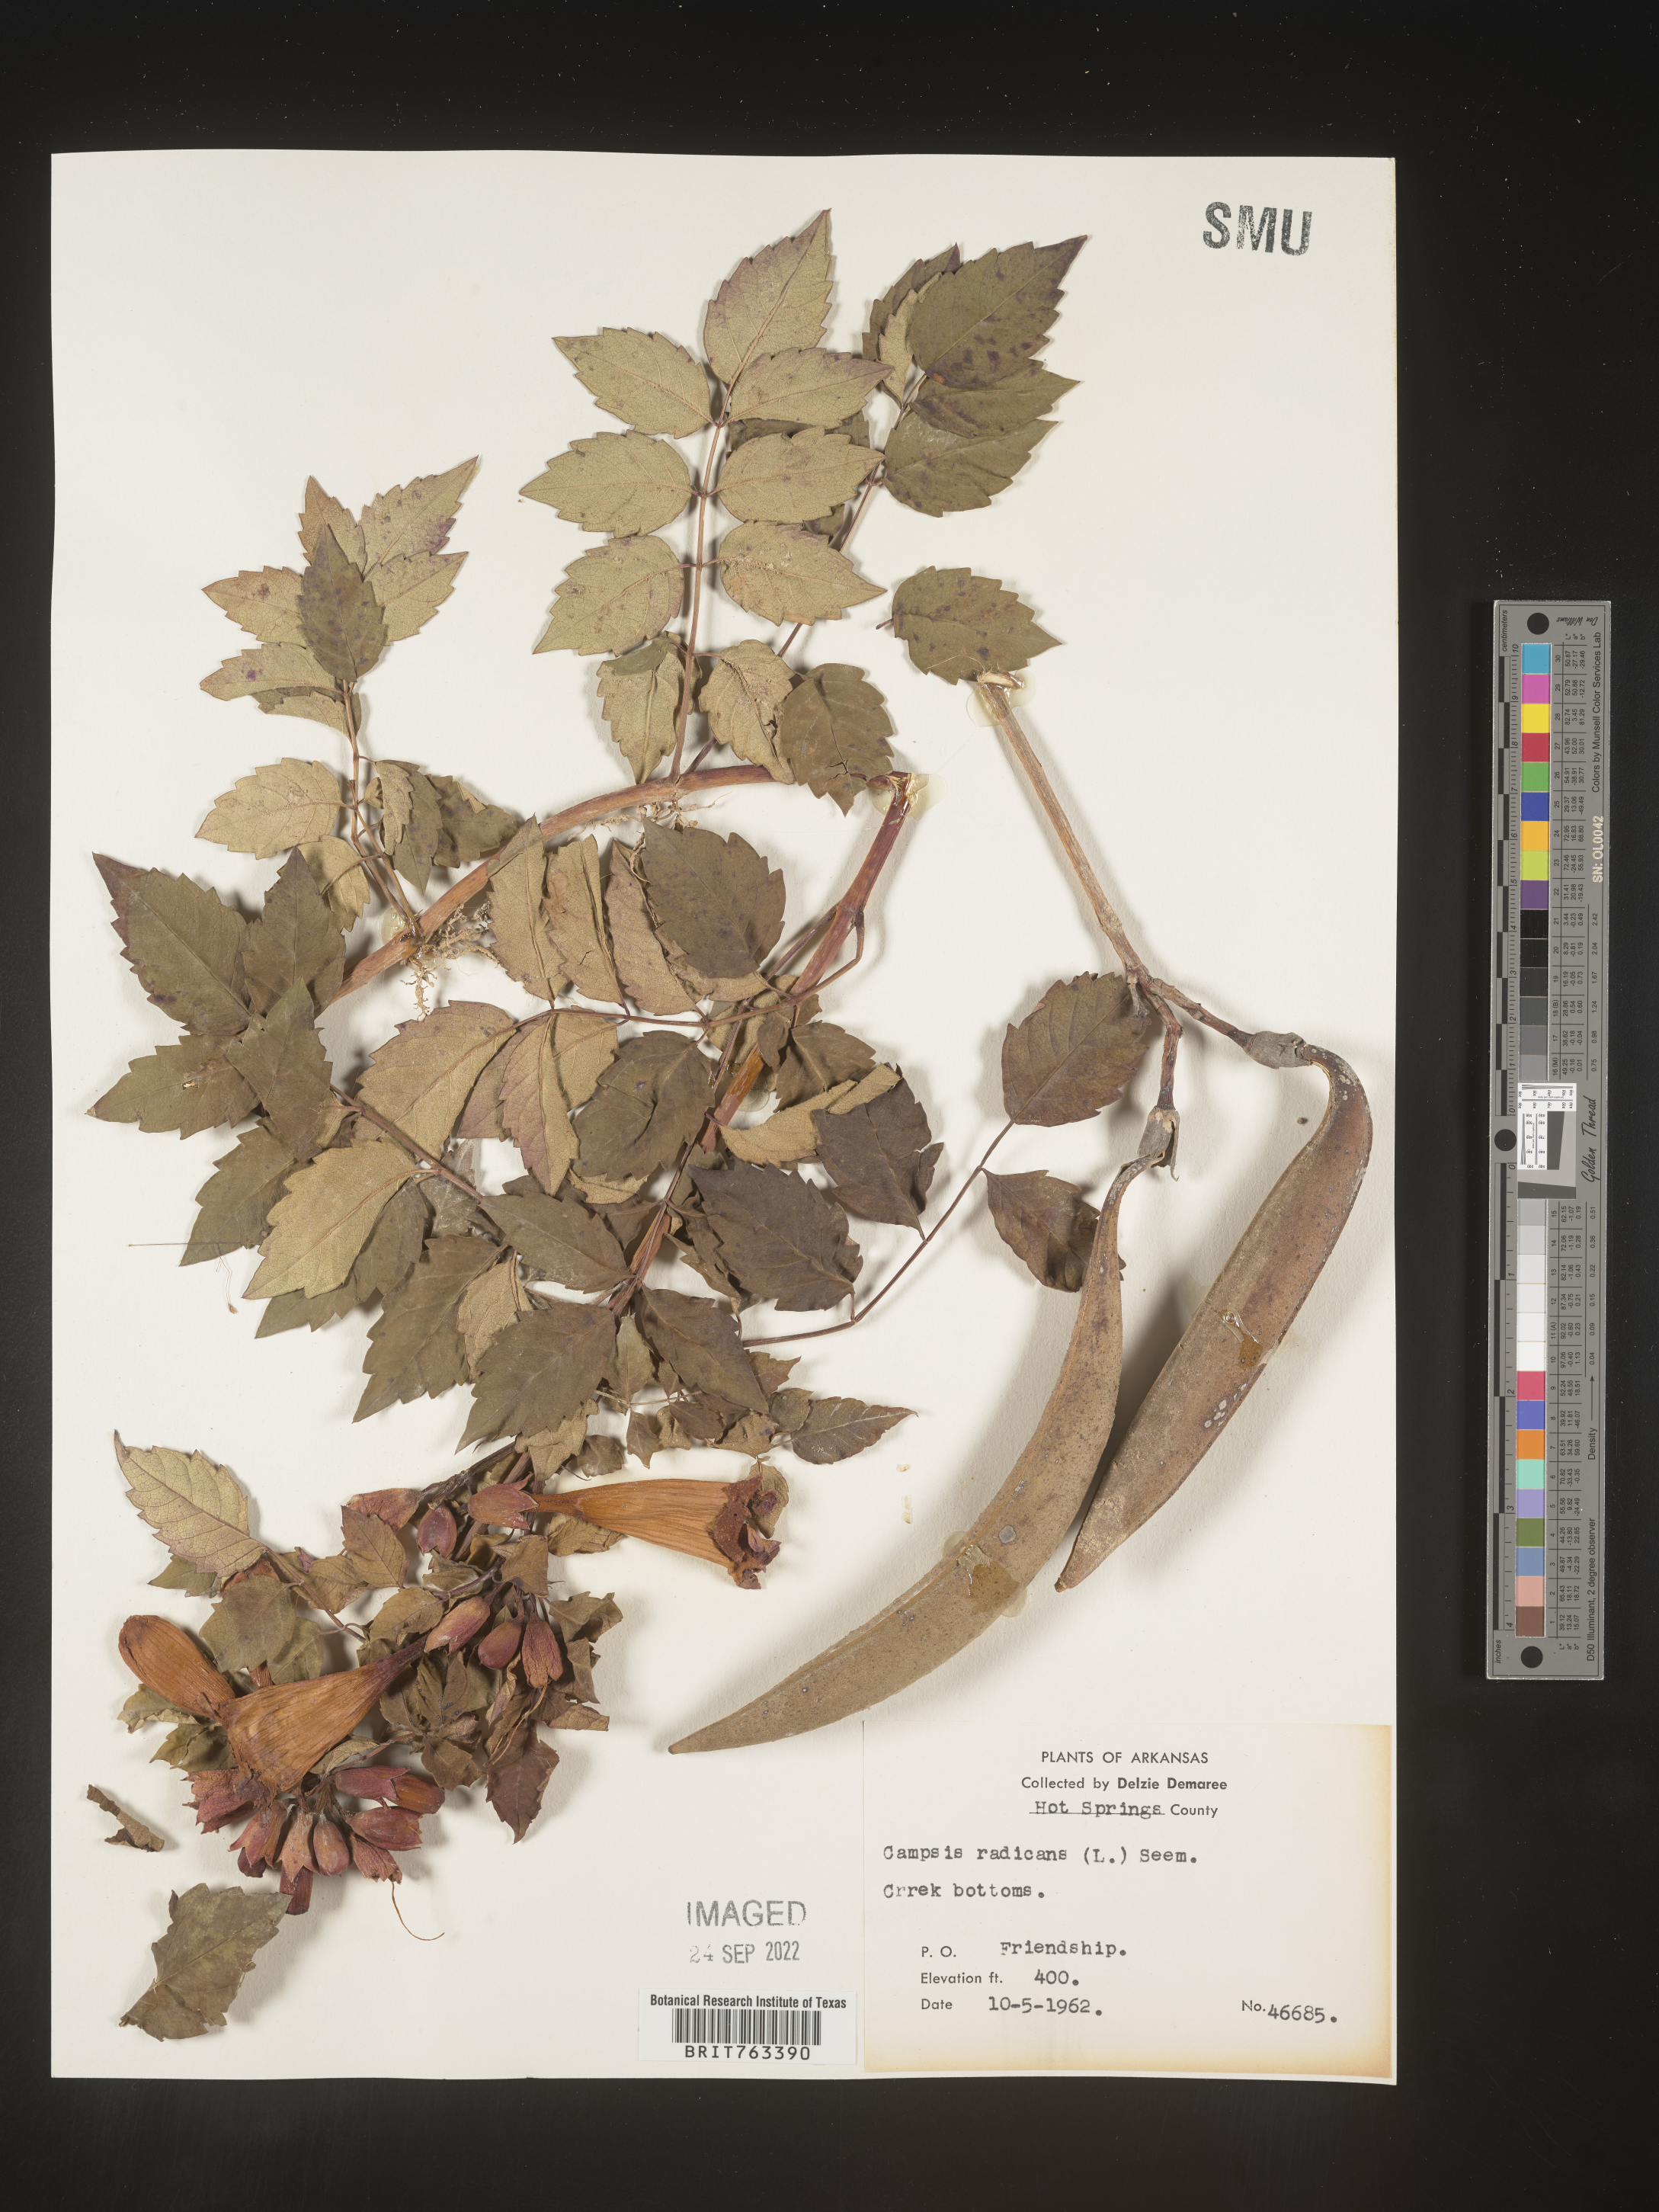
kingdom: Plantae
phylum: Tracheophyta
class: Magnoliopsida
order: Lamiales
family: Bignoniaceae
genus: Campsis
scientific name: Campsis radicans
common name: Trumpet-creeper
